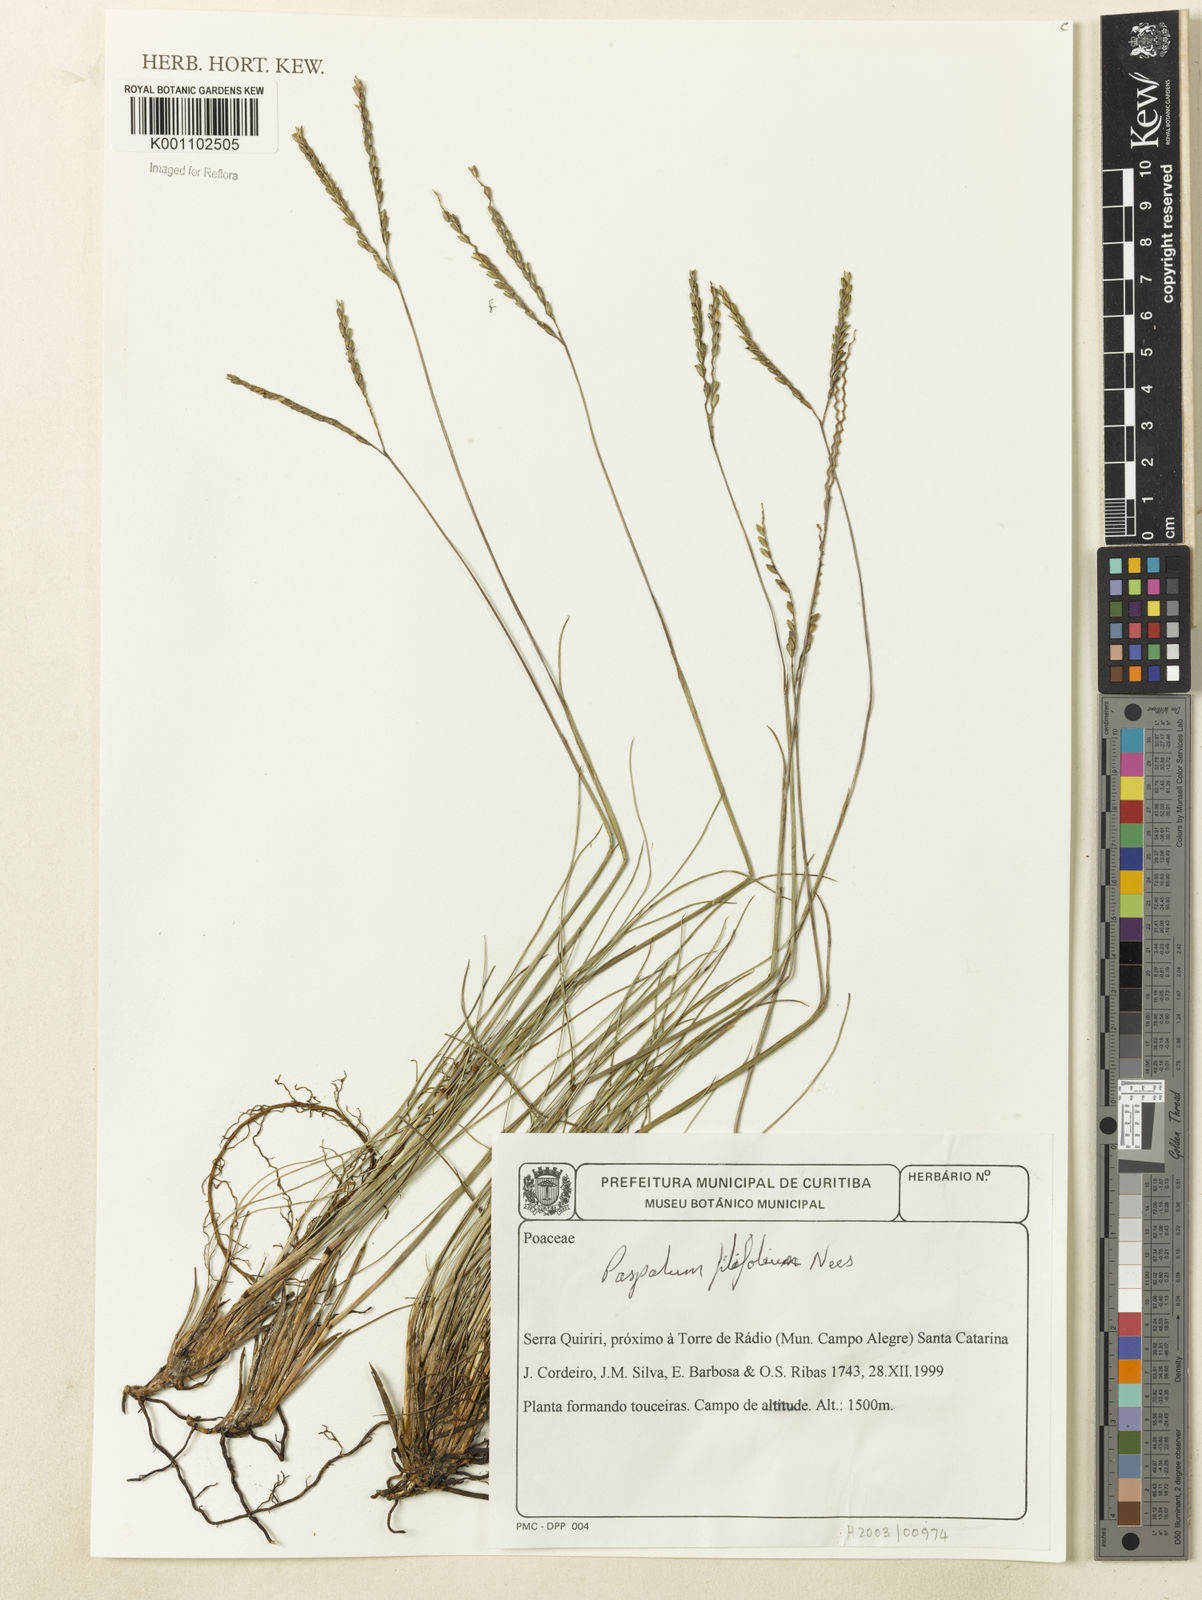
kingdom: Plantae
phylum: Tracheophyta
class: Liliopsida
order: Poales
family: Poaceae
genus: Paspalum
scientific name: Paspalum filifolium
